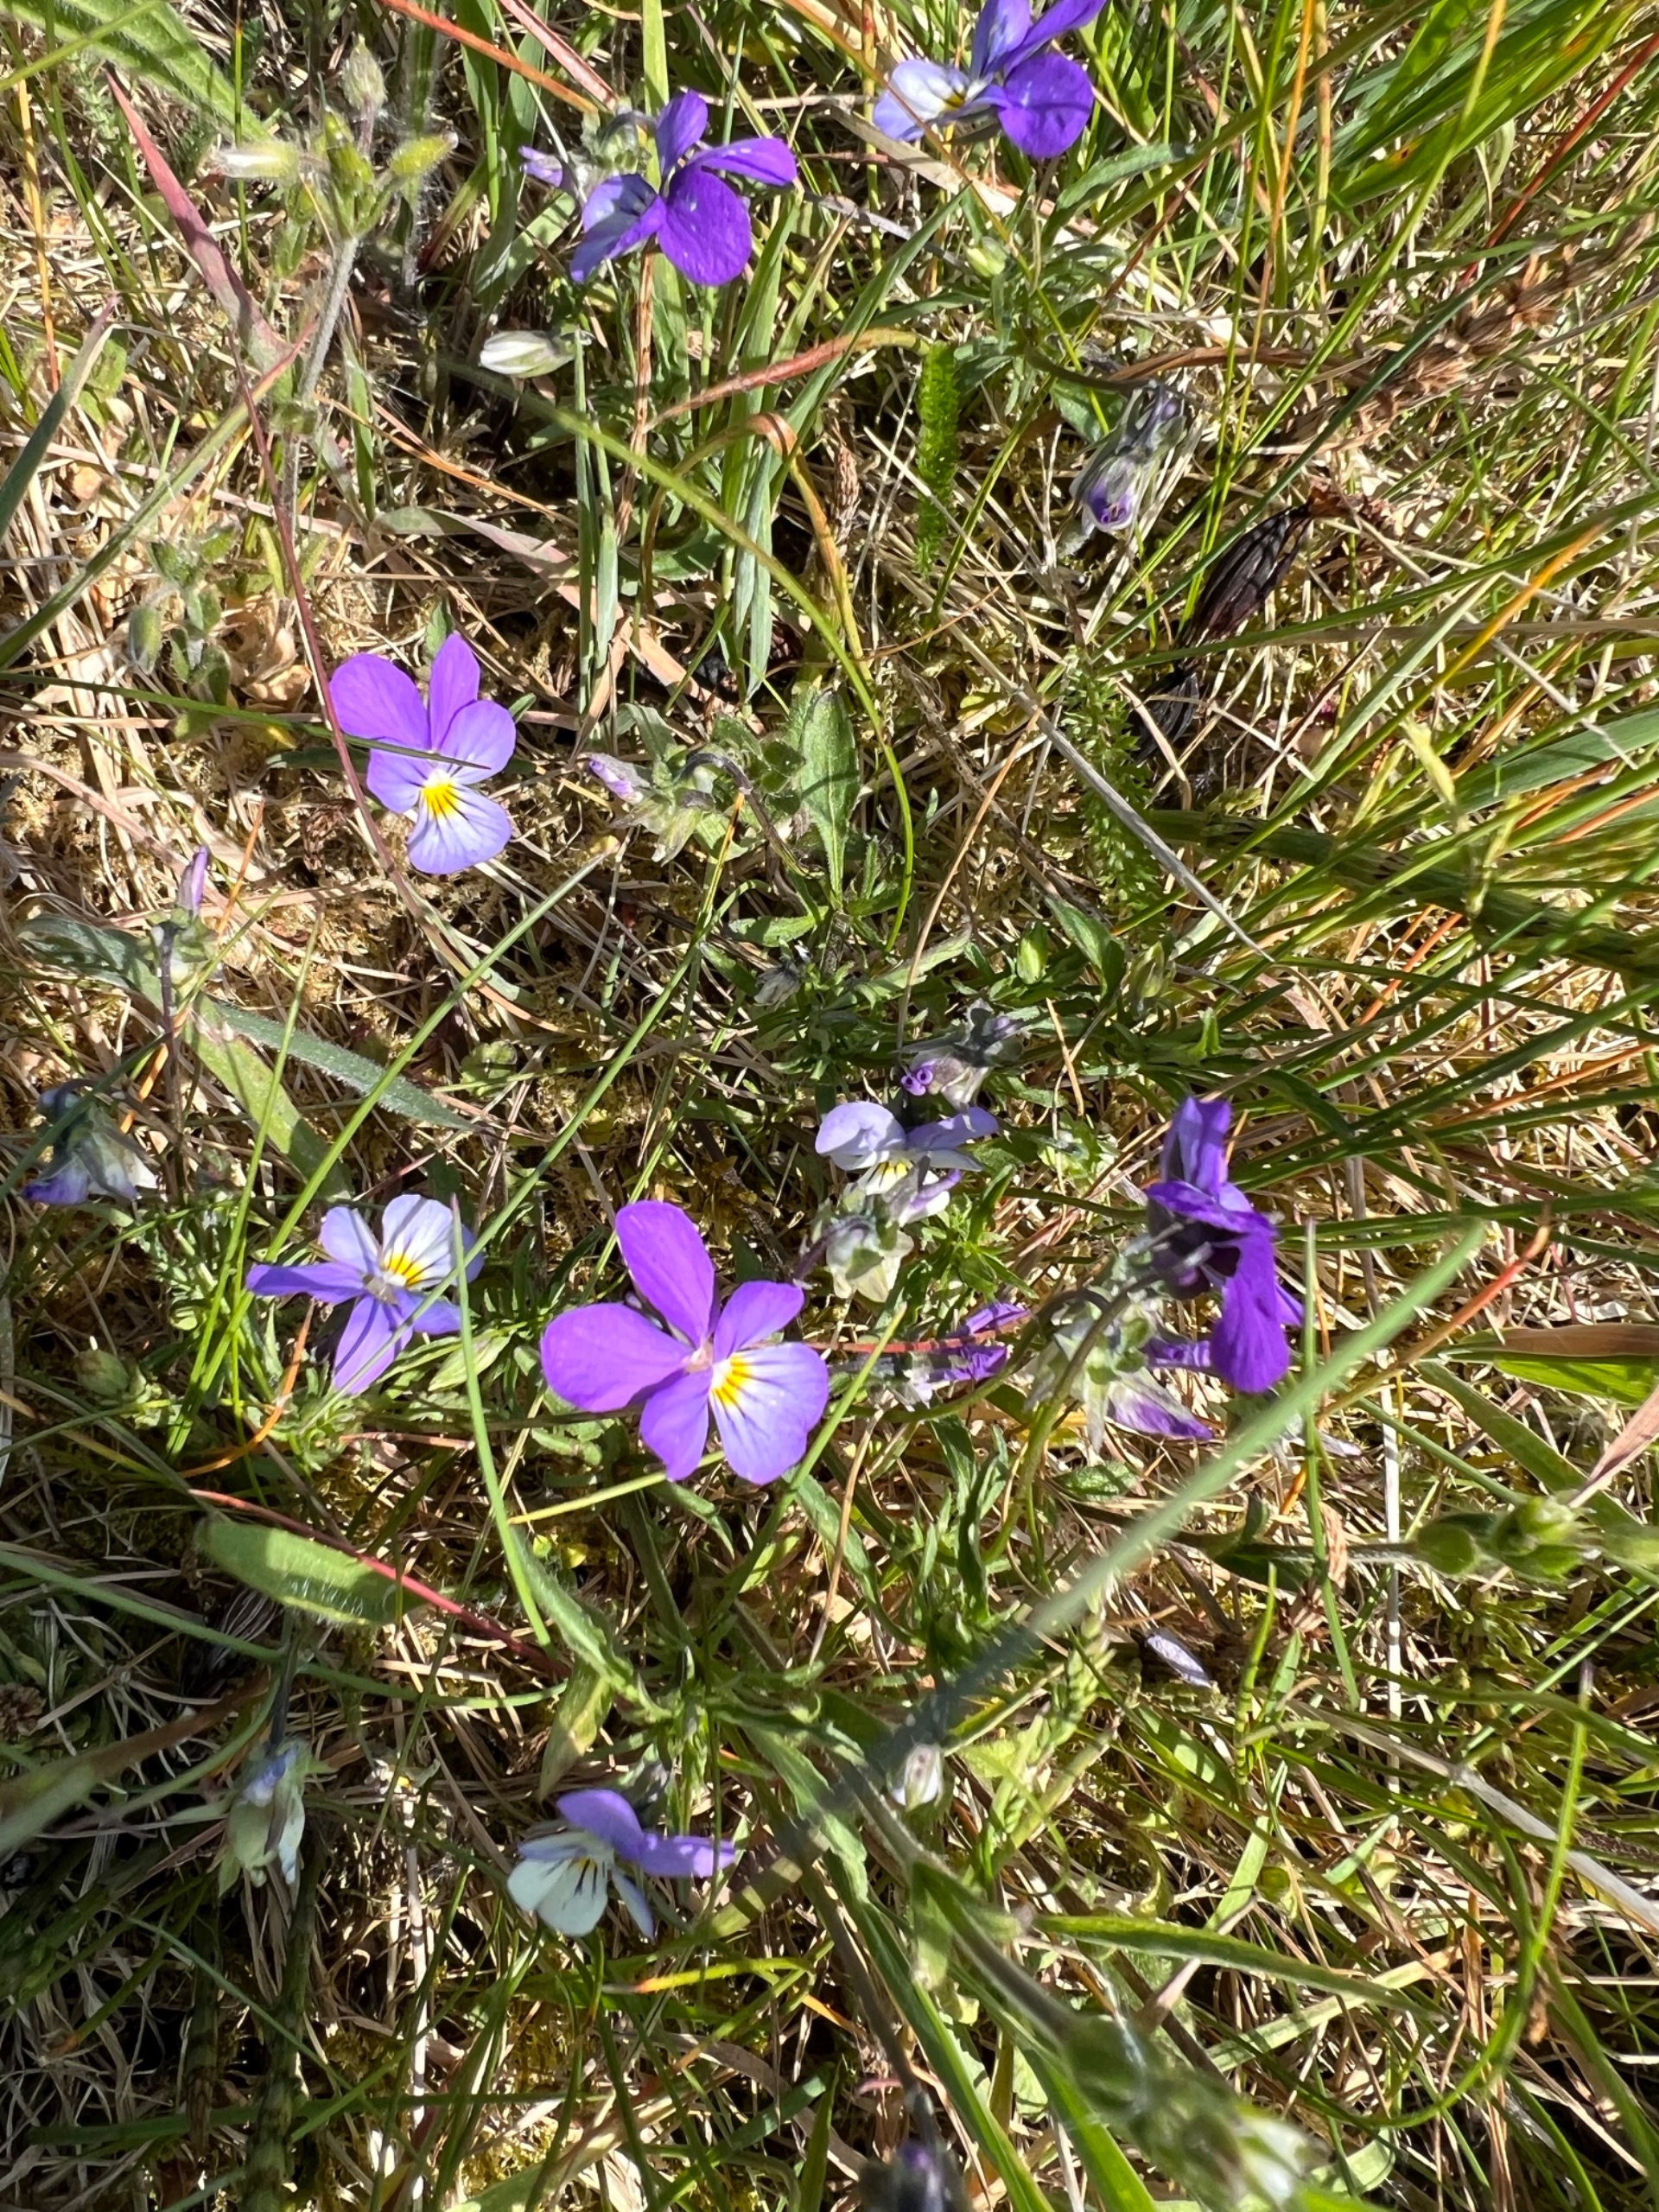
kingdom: Plantae
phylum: Tracheophyta
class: Magnoliopsida
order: Malpighiales
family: Violaceae
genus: Viola
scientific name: Viola tricolor
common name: Stedmoderblomst
